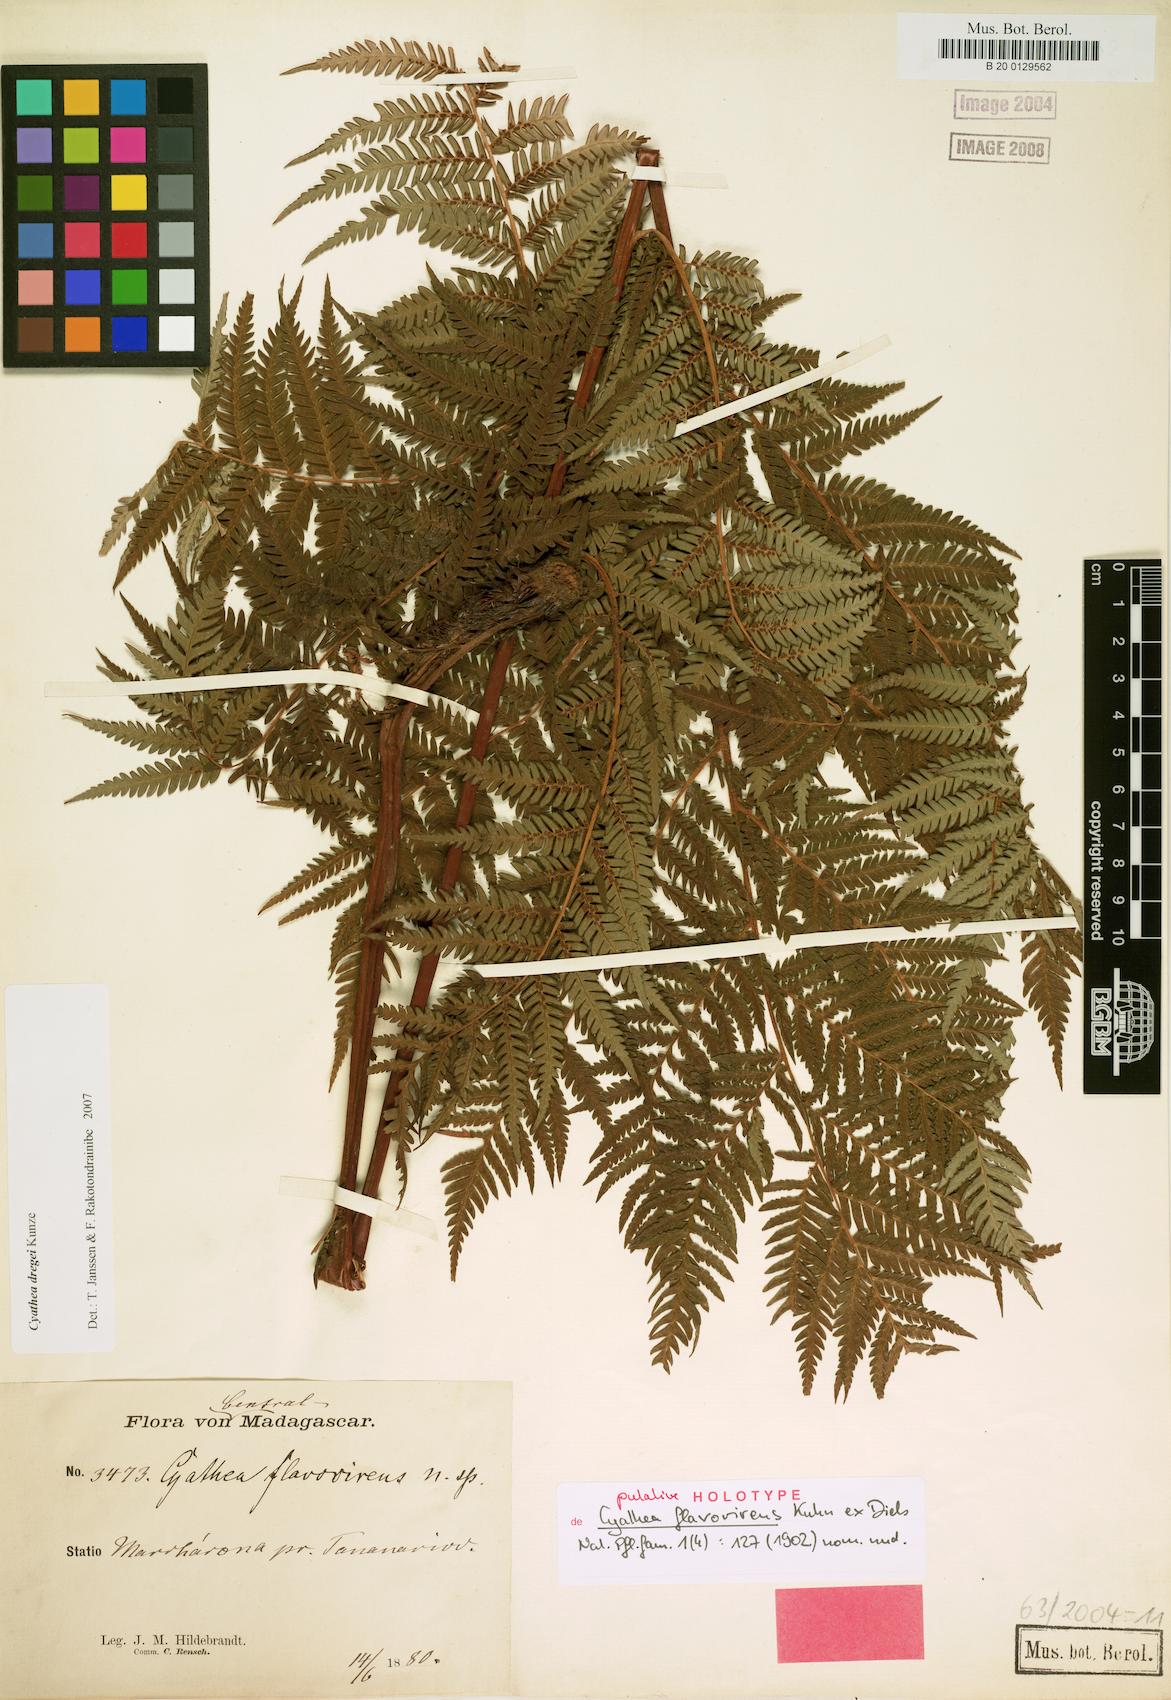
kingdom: Plantae
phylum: Tracheophyta
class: Polypodiopsida
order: Cyatheales
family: Cyatheaceae
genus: Alsophila
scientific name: Alsophila dregei
